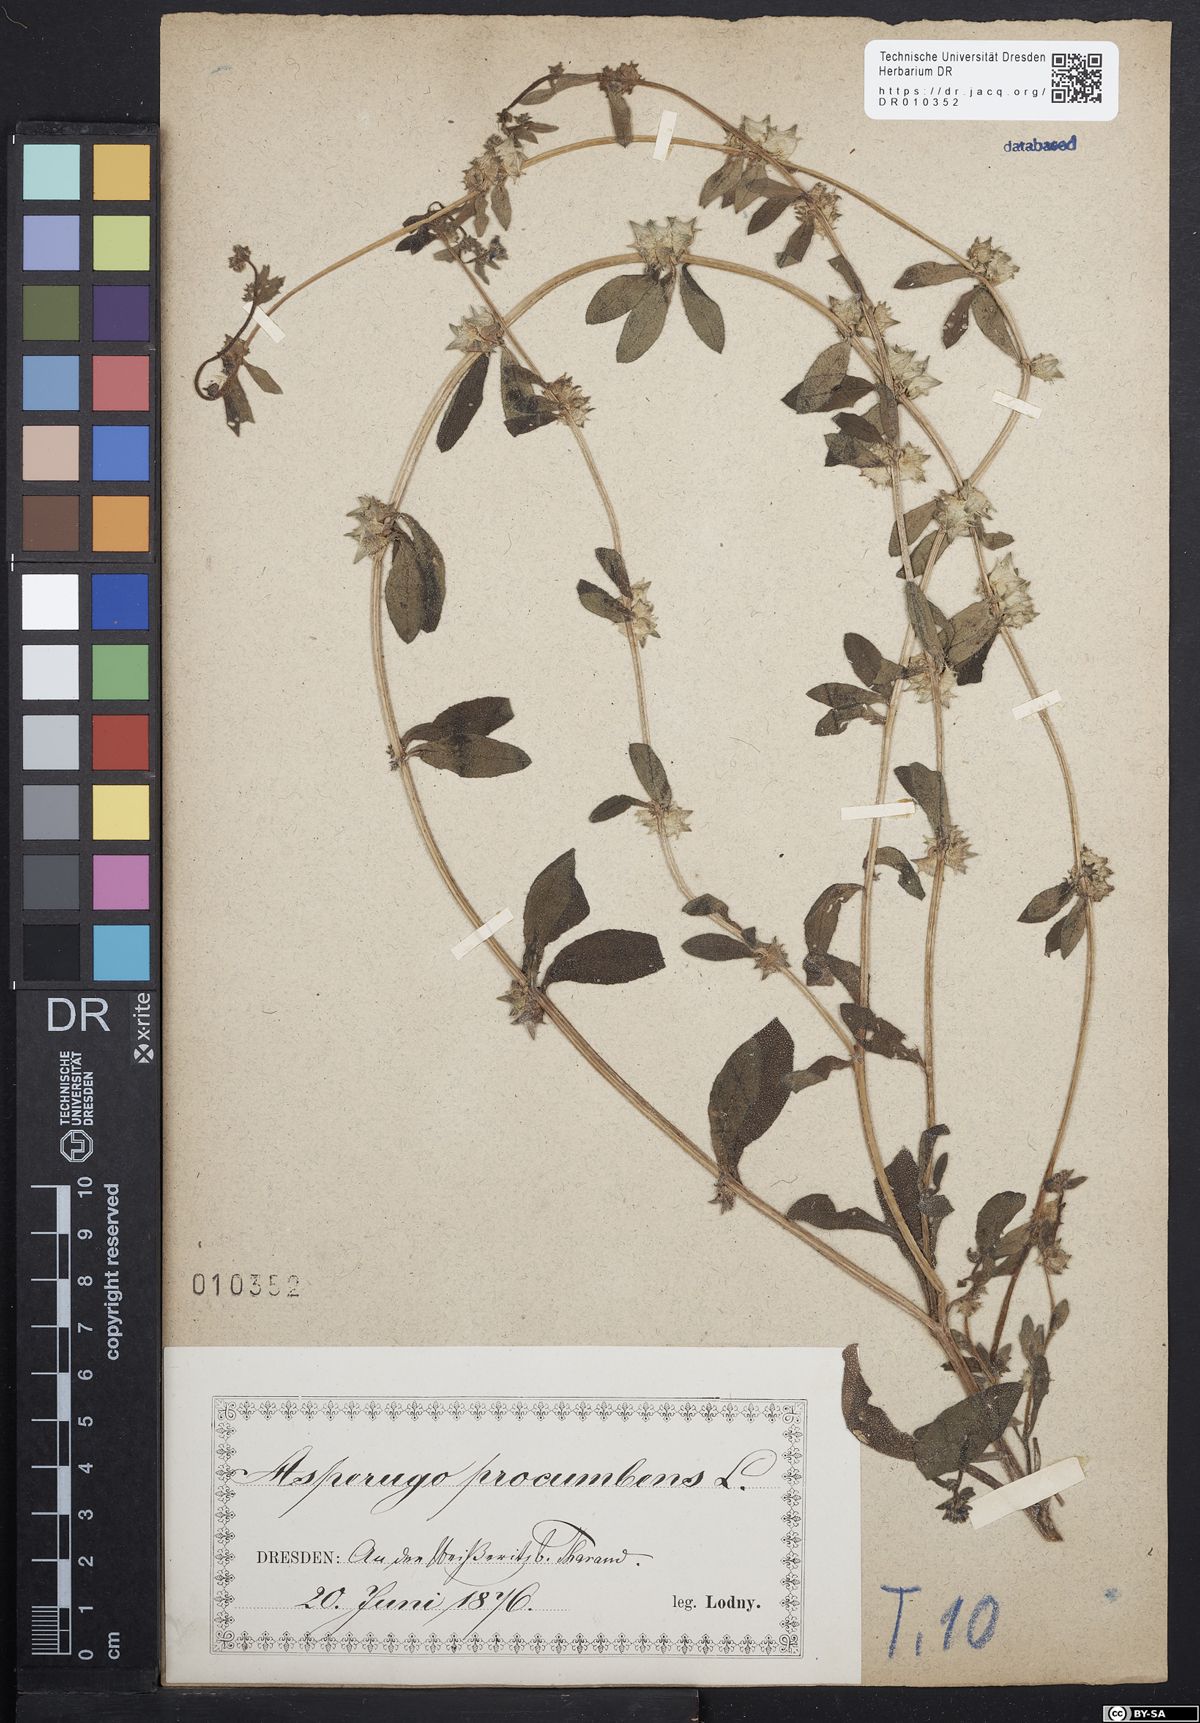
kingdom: Plantae
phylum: Tracheophyta
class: Magnoliopsida
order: Boraginales
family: Boraginaceae
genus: Asperugo
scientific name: Asperugo procumbens
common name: Madwort
